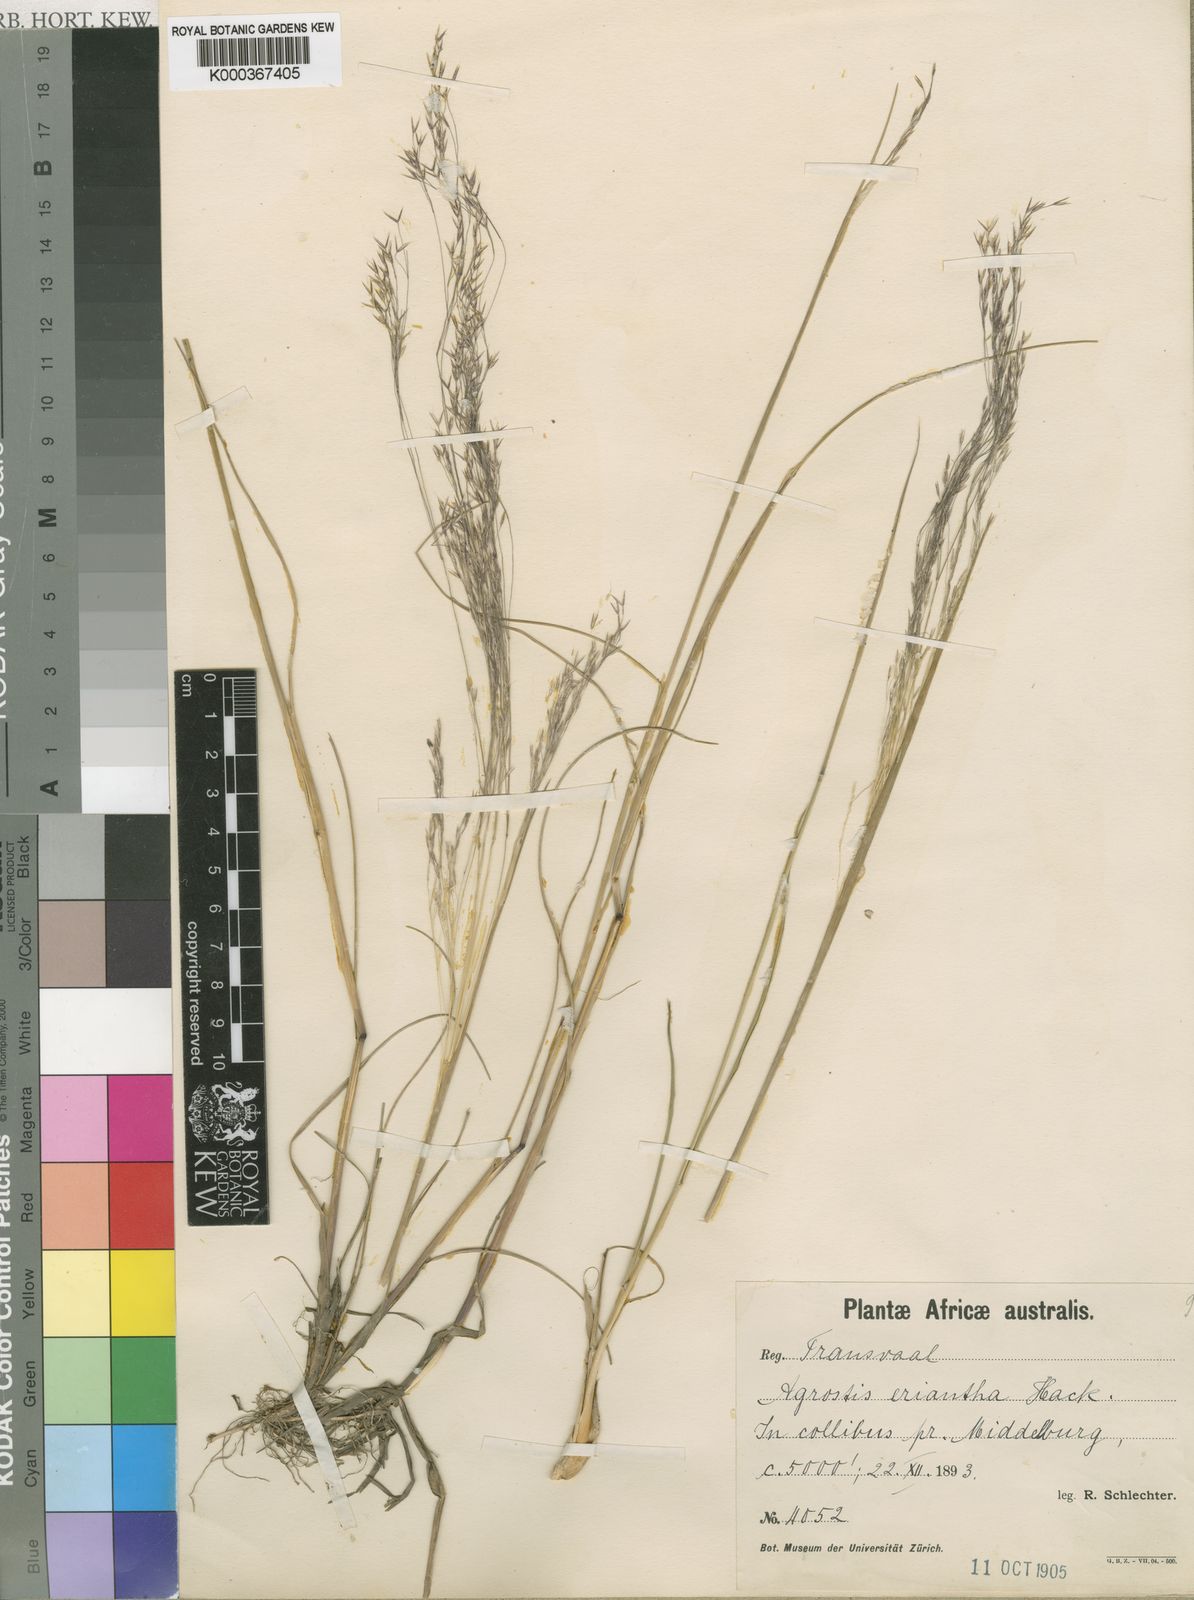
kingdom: Plantae
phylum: Tracheophyta
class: Liliopsida
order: Poales
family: Poaceae
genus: Lachnagrostis
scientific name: Lachnagrostis eriantha
